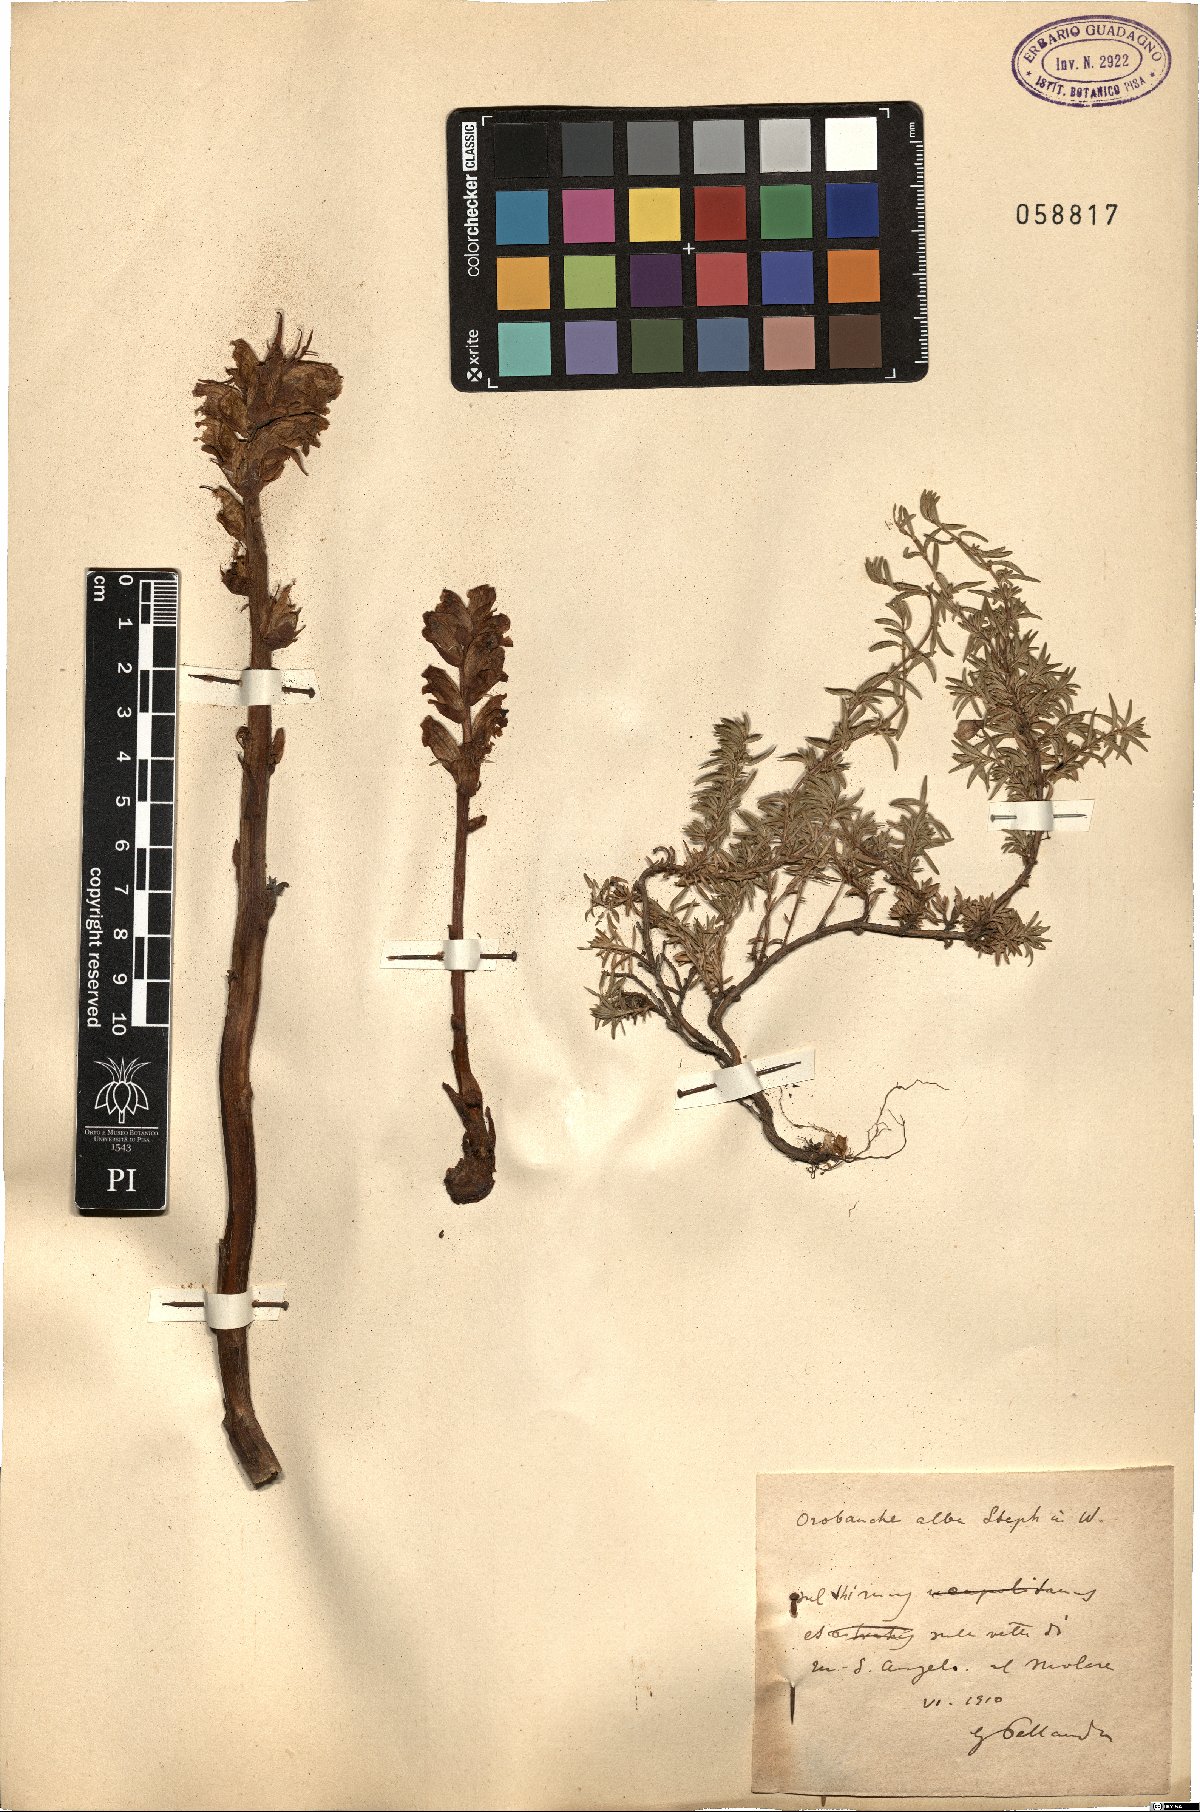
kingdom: Plantae
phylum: Tracheophyta
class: Magnoliopsida
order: Lamiales
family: Orobanchaceae
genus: Orobanche
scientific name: Orobanche alba
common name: Thyme broomrape
